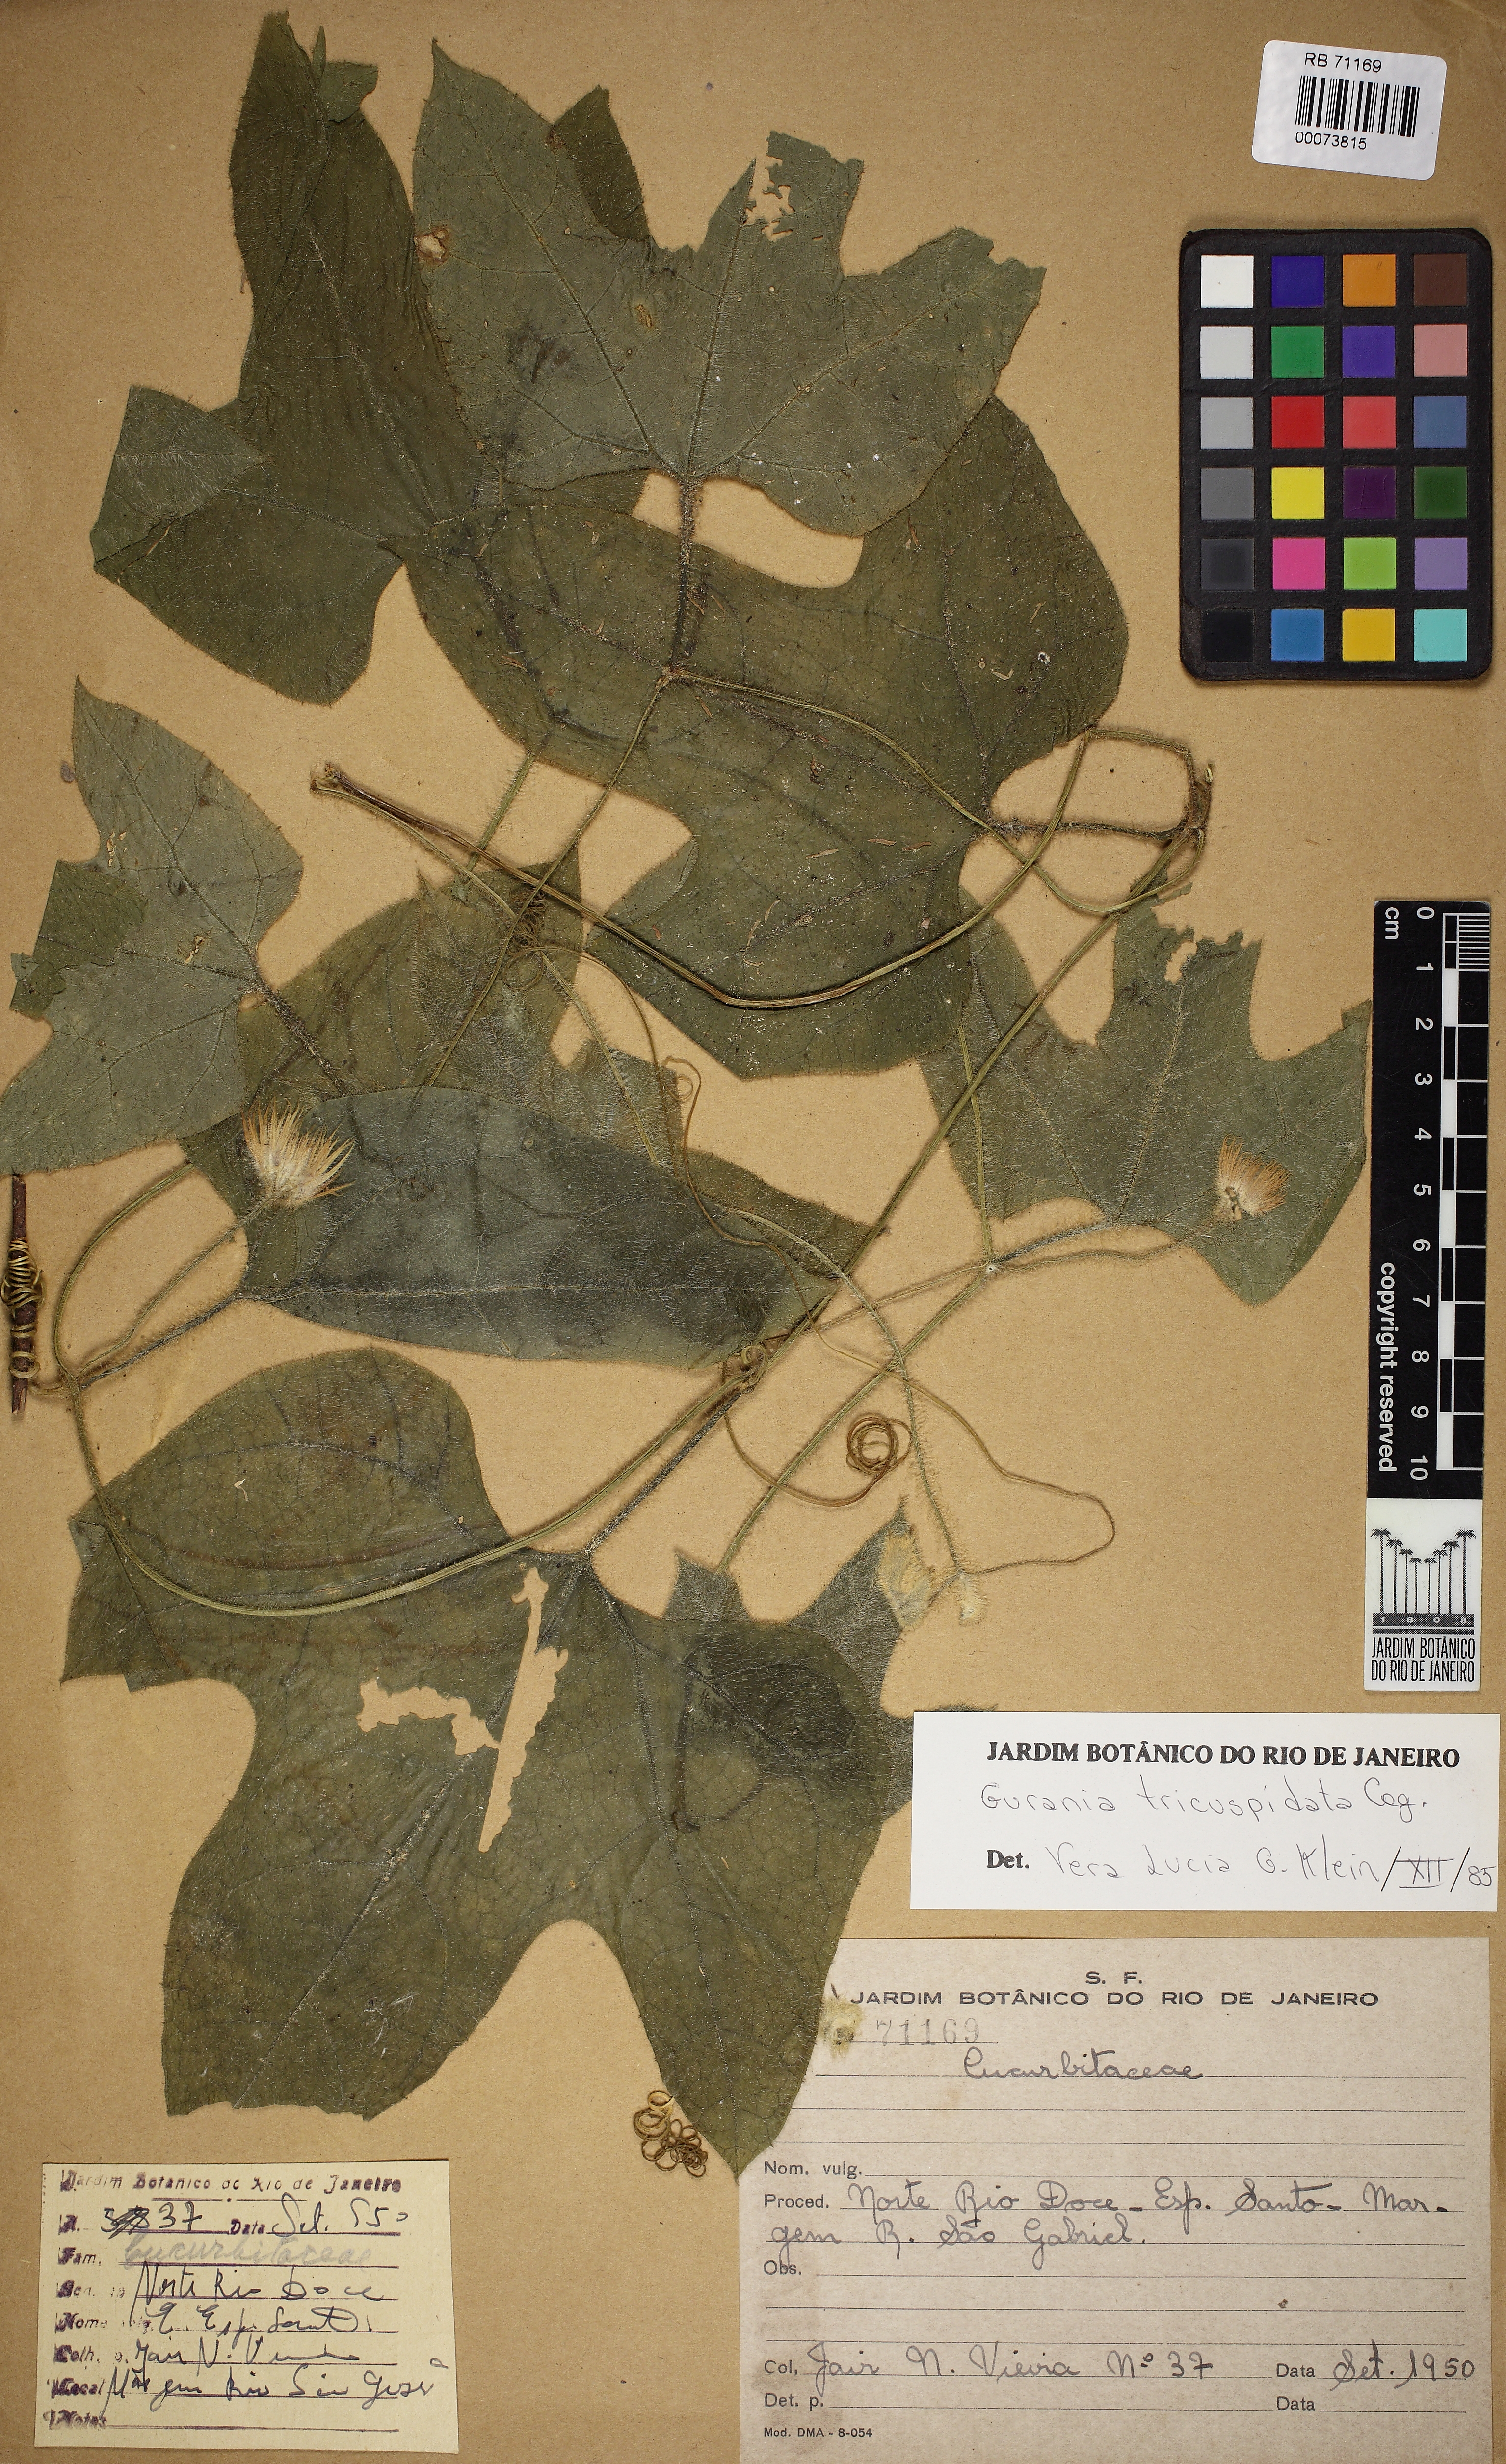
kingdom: Plantae
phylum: Tracheophyta
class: Magnoliopsida
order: Cucurbitales
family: Cucurbitaceae
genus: Gurania
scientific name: Gurania tricuspidata
